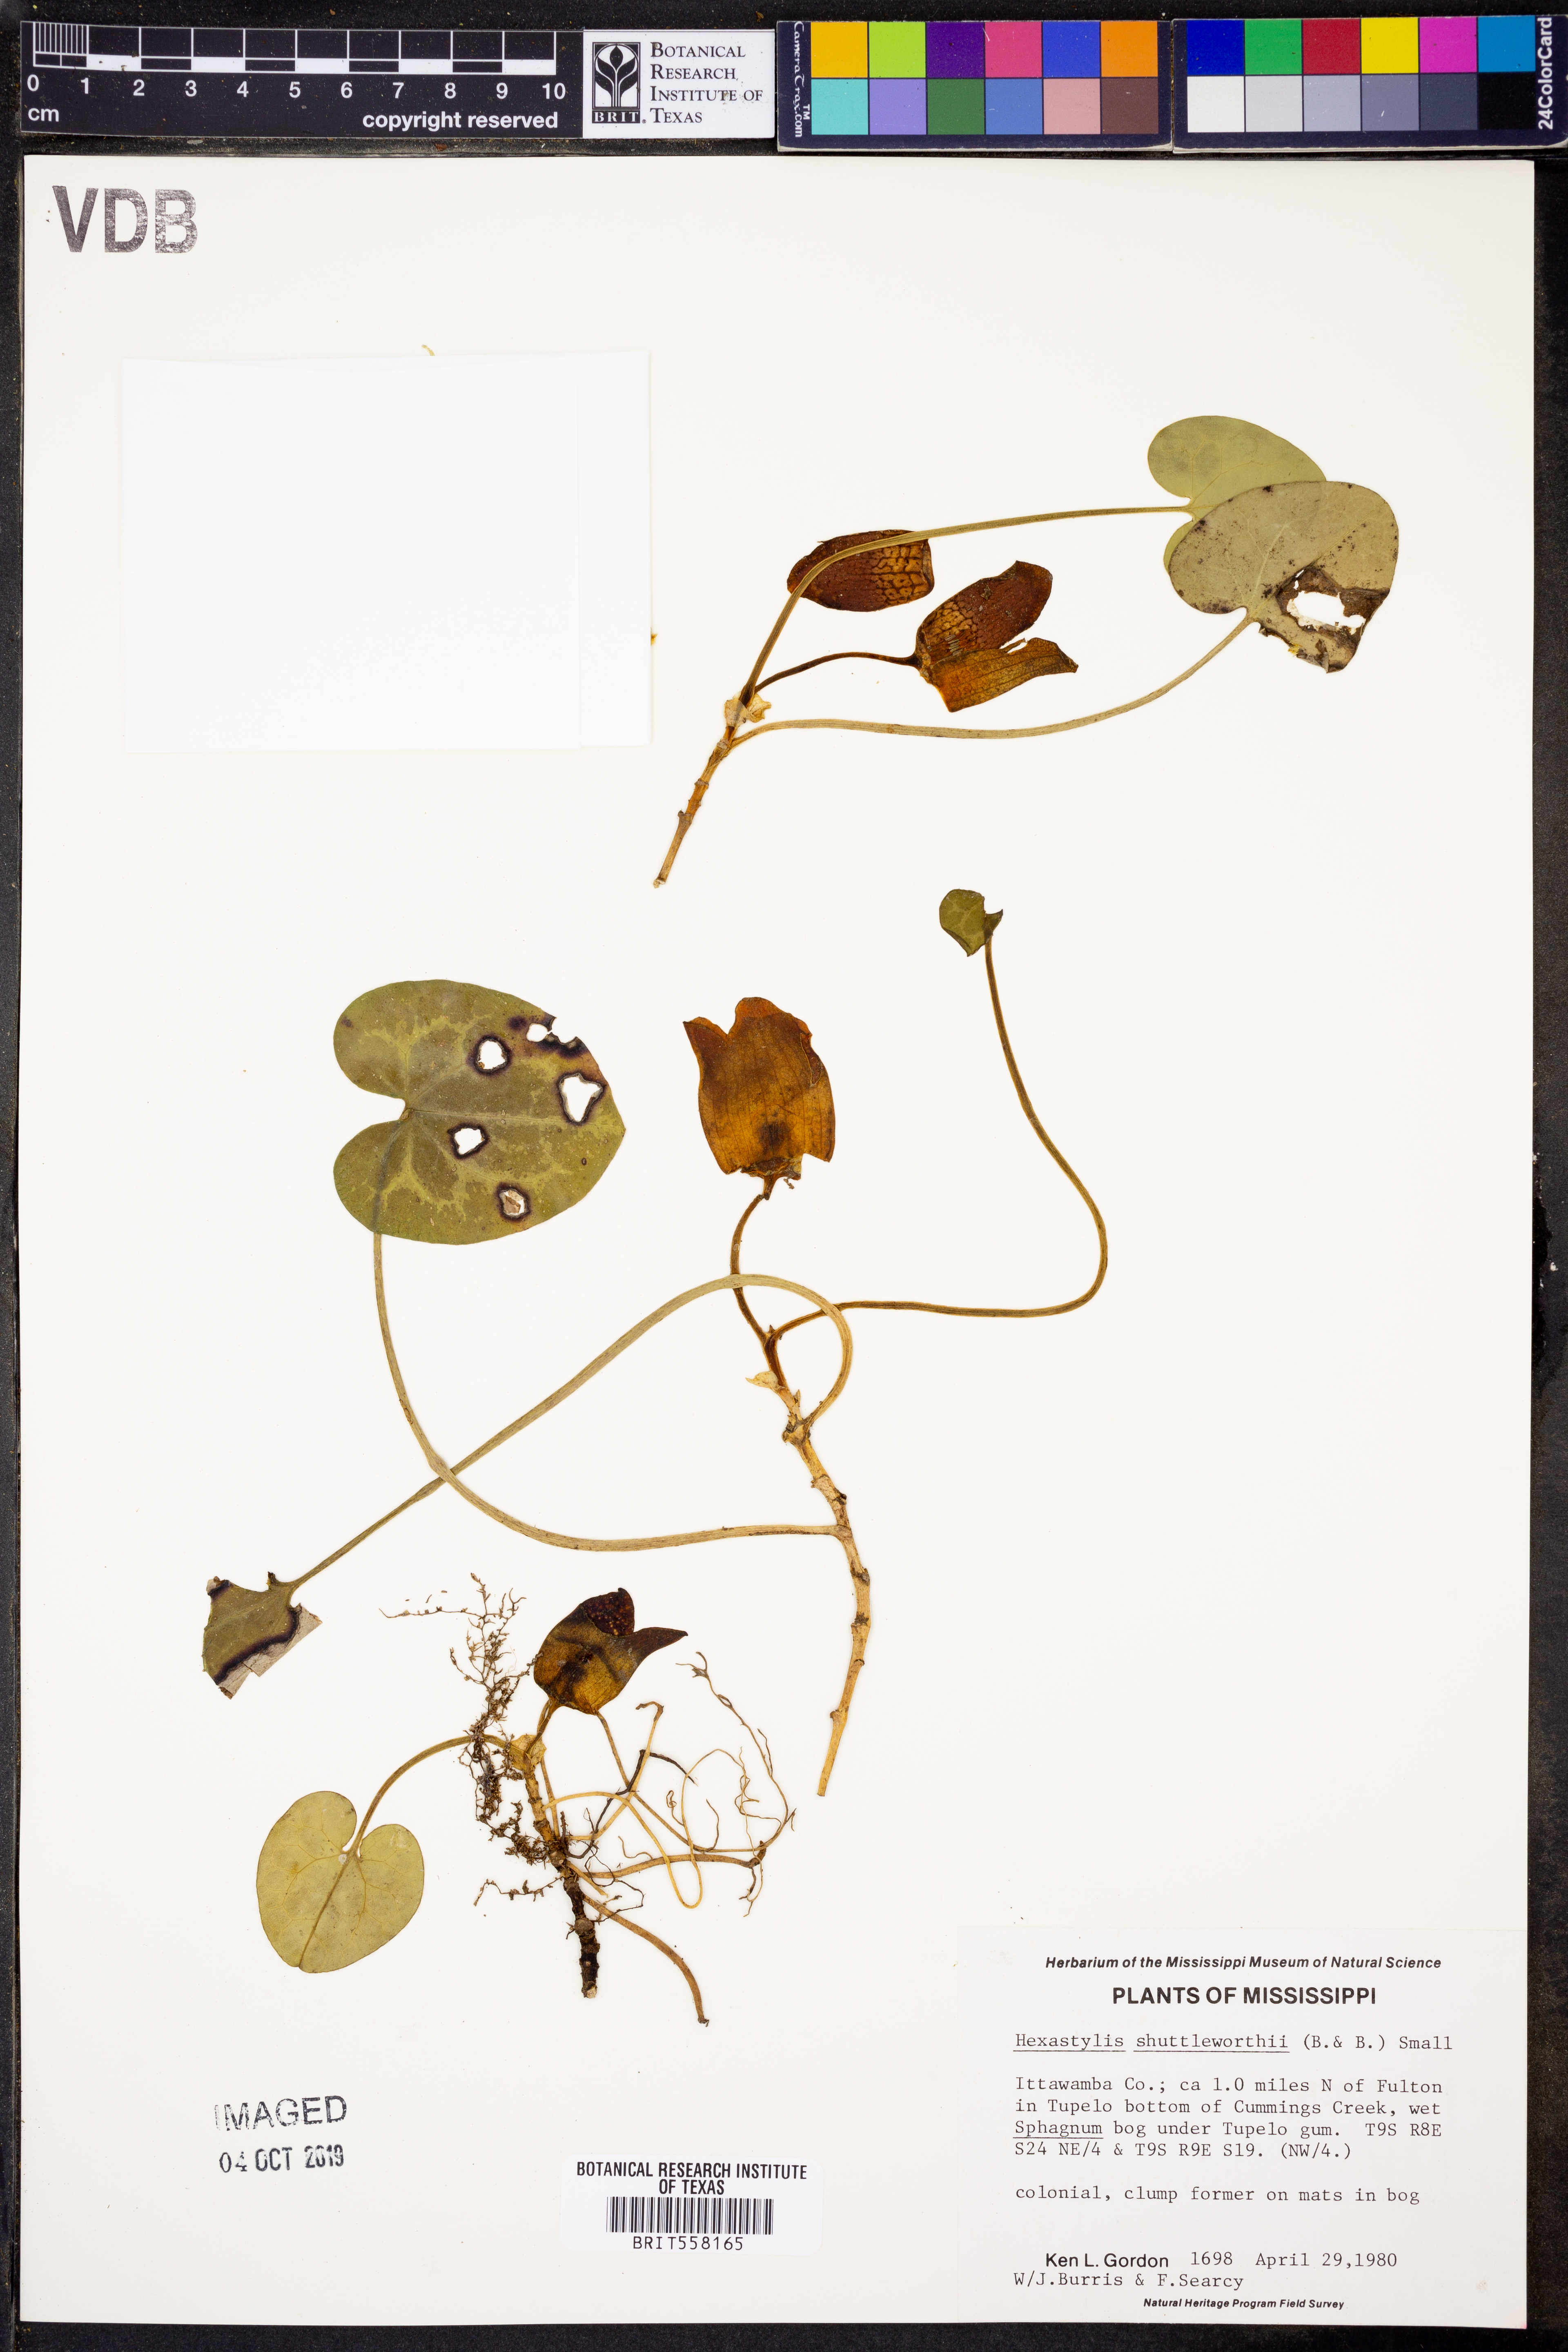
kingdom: Plantae
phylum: Tracheophyta
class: Magnoliopsida
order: Piperales
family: Aristolochiaceae
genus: Hexastylis
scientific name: Hexastylis shuttleworthii
